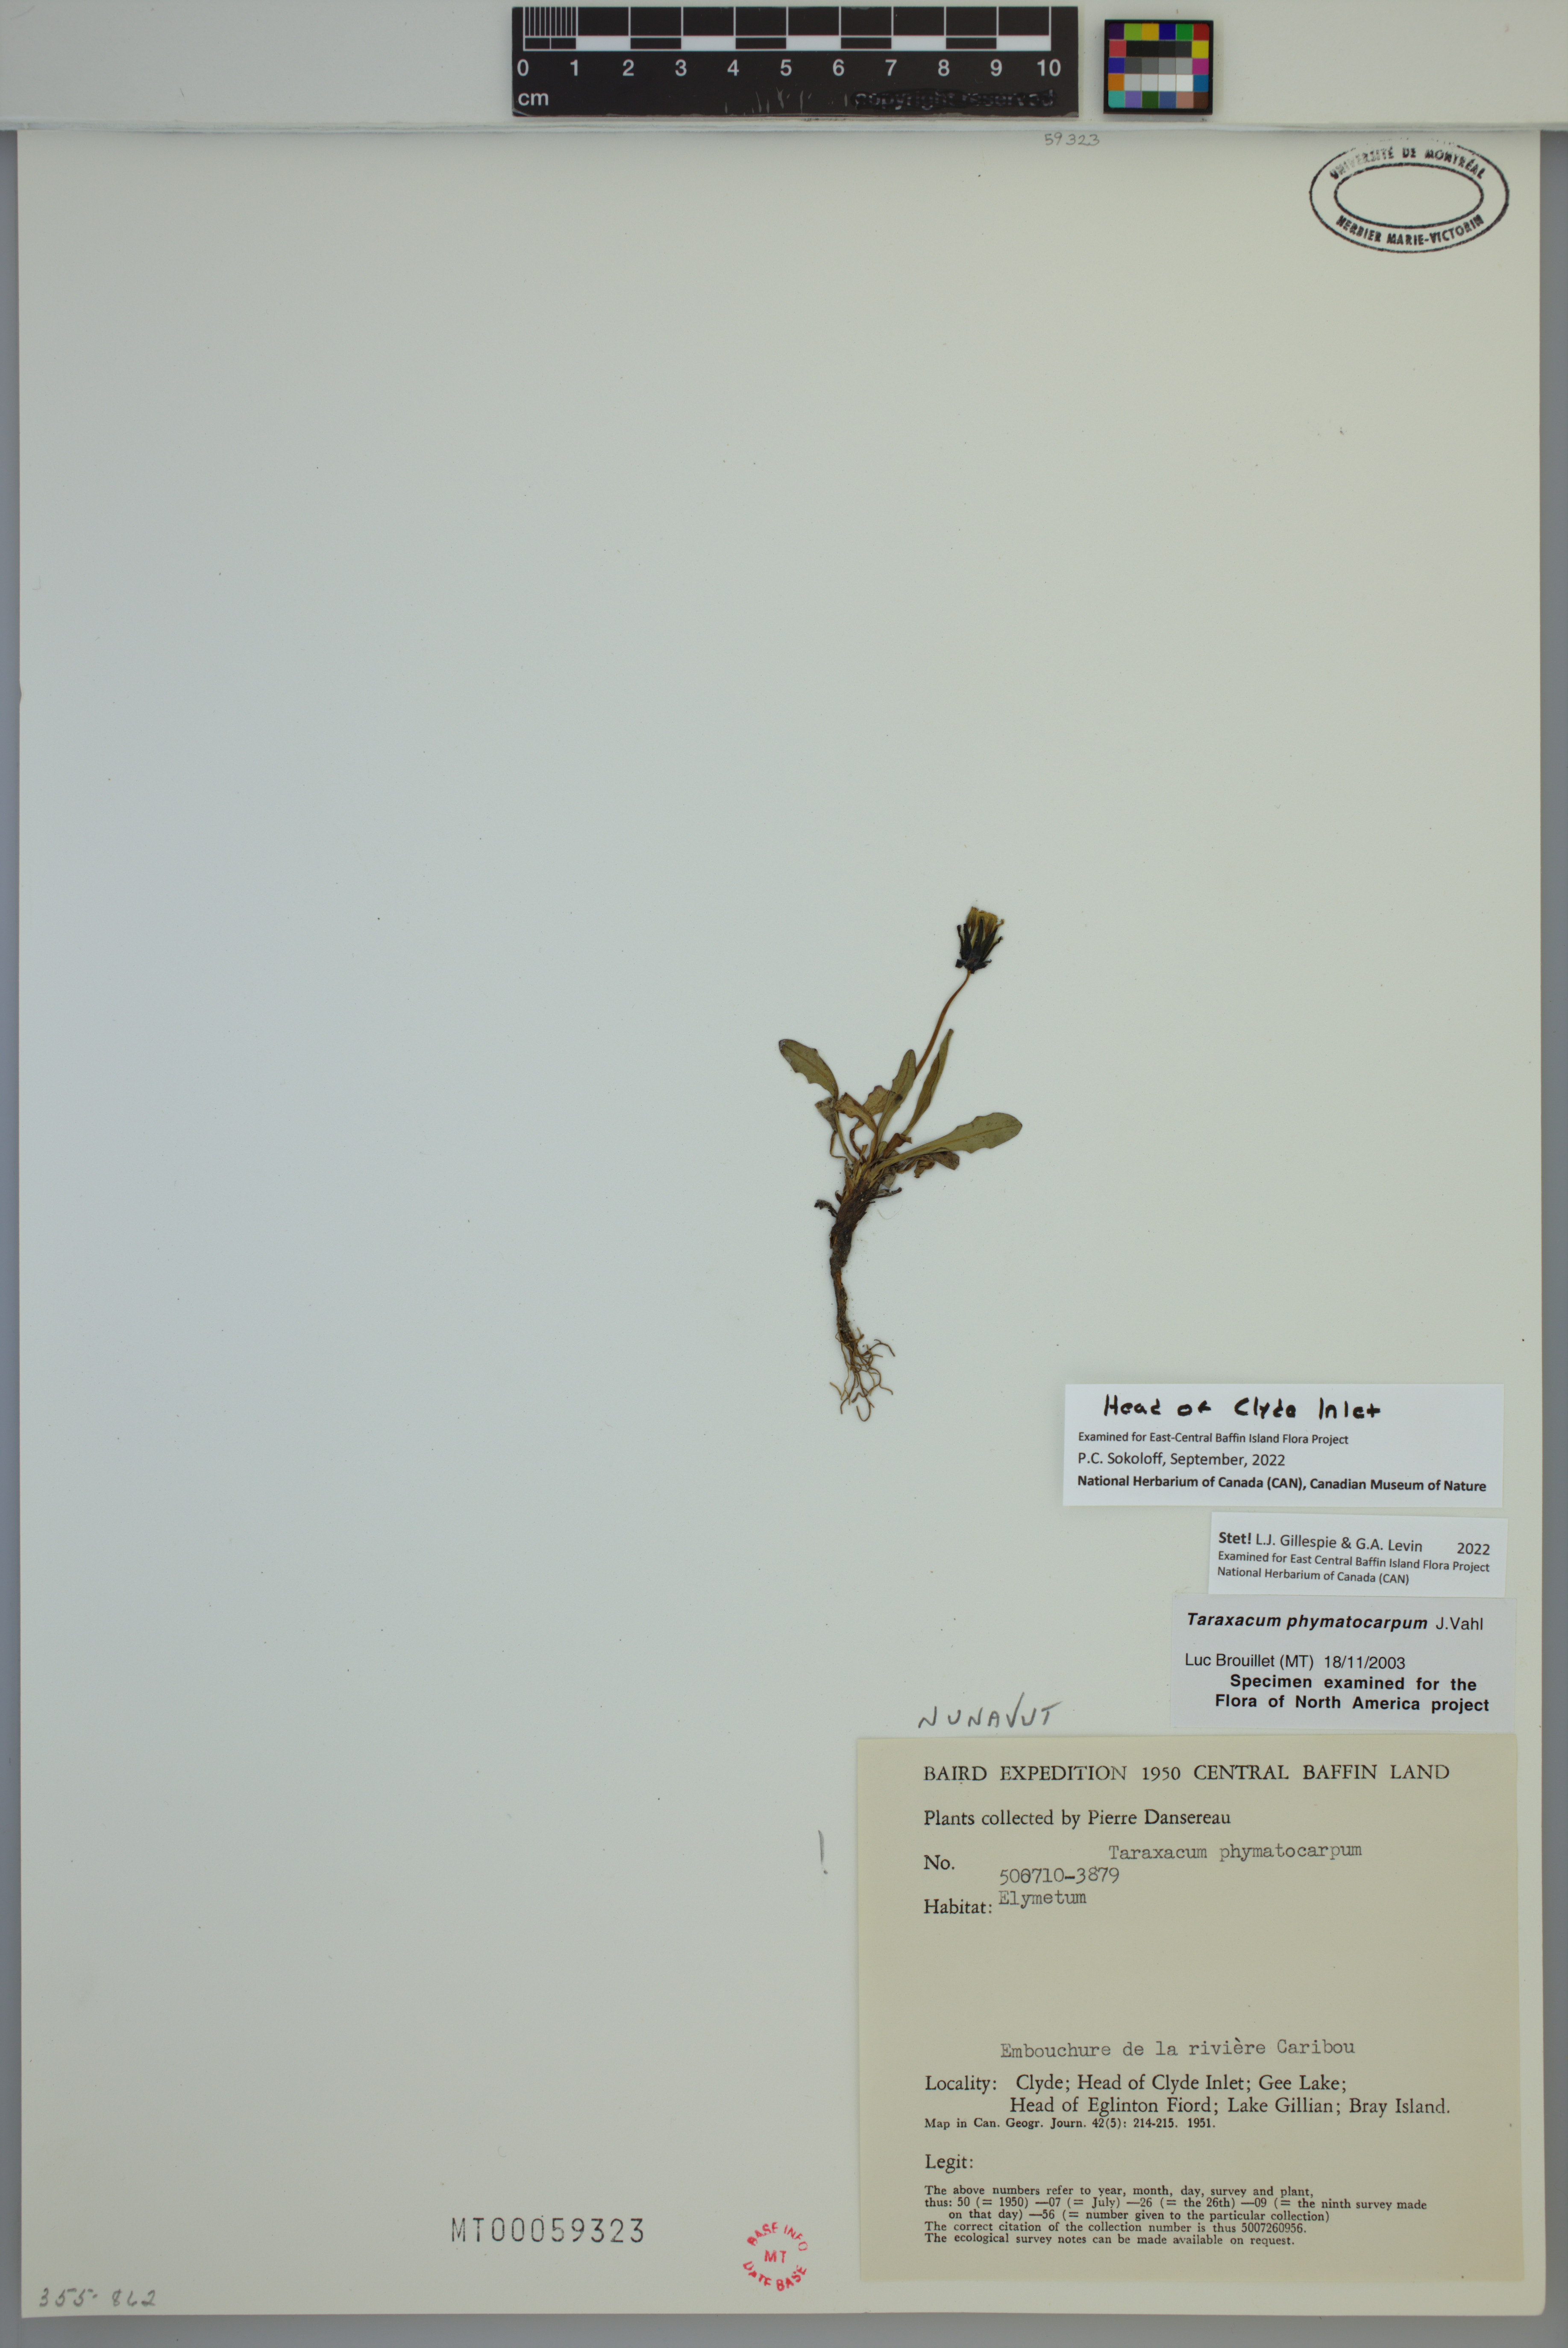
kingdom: Plantae
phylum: Tracheophyta
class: Magnoliopsida
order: Asterales
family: Asteraceae
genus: Taraxacum
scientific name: Taraxacum phymatocarpum
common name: Harp dandelion
